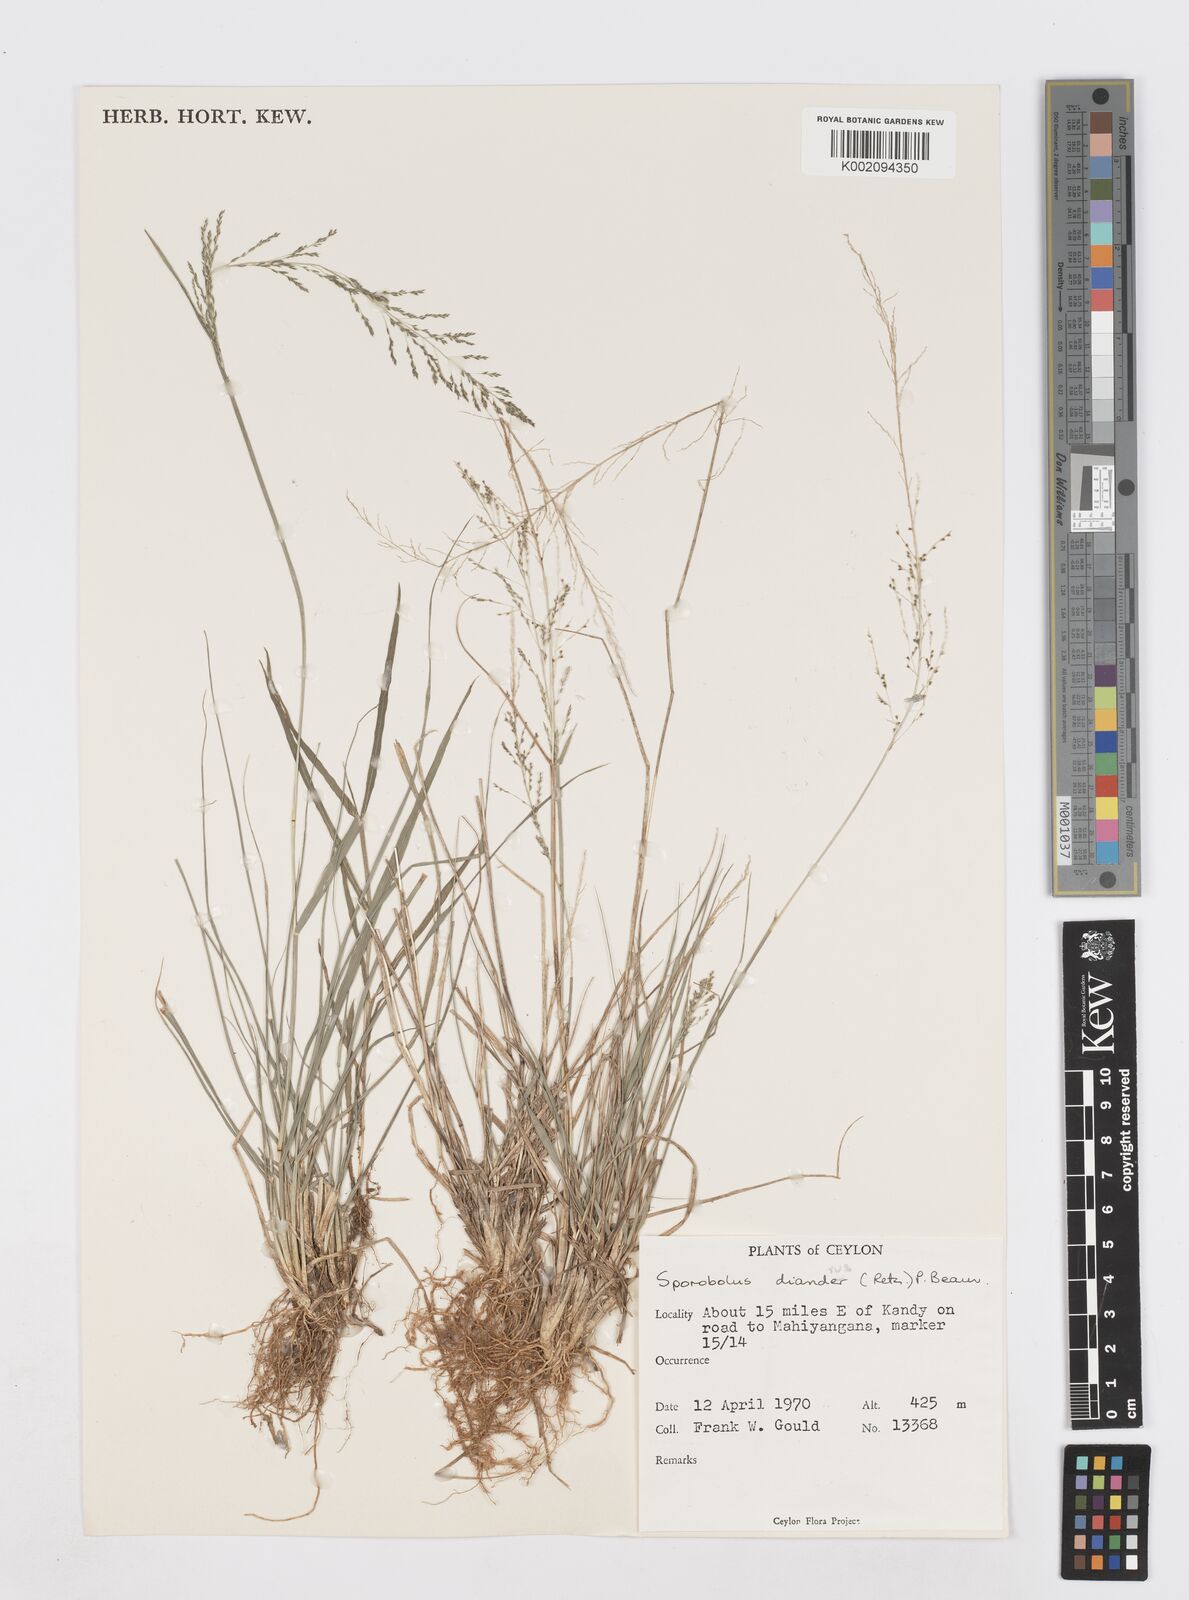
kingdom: Plantae
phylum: Tracheophyta
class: Liliopsida
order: Poales
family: Poaceae
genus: Sporobolus
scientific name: Sporobolus diandrus
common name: Tussock dropseed
